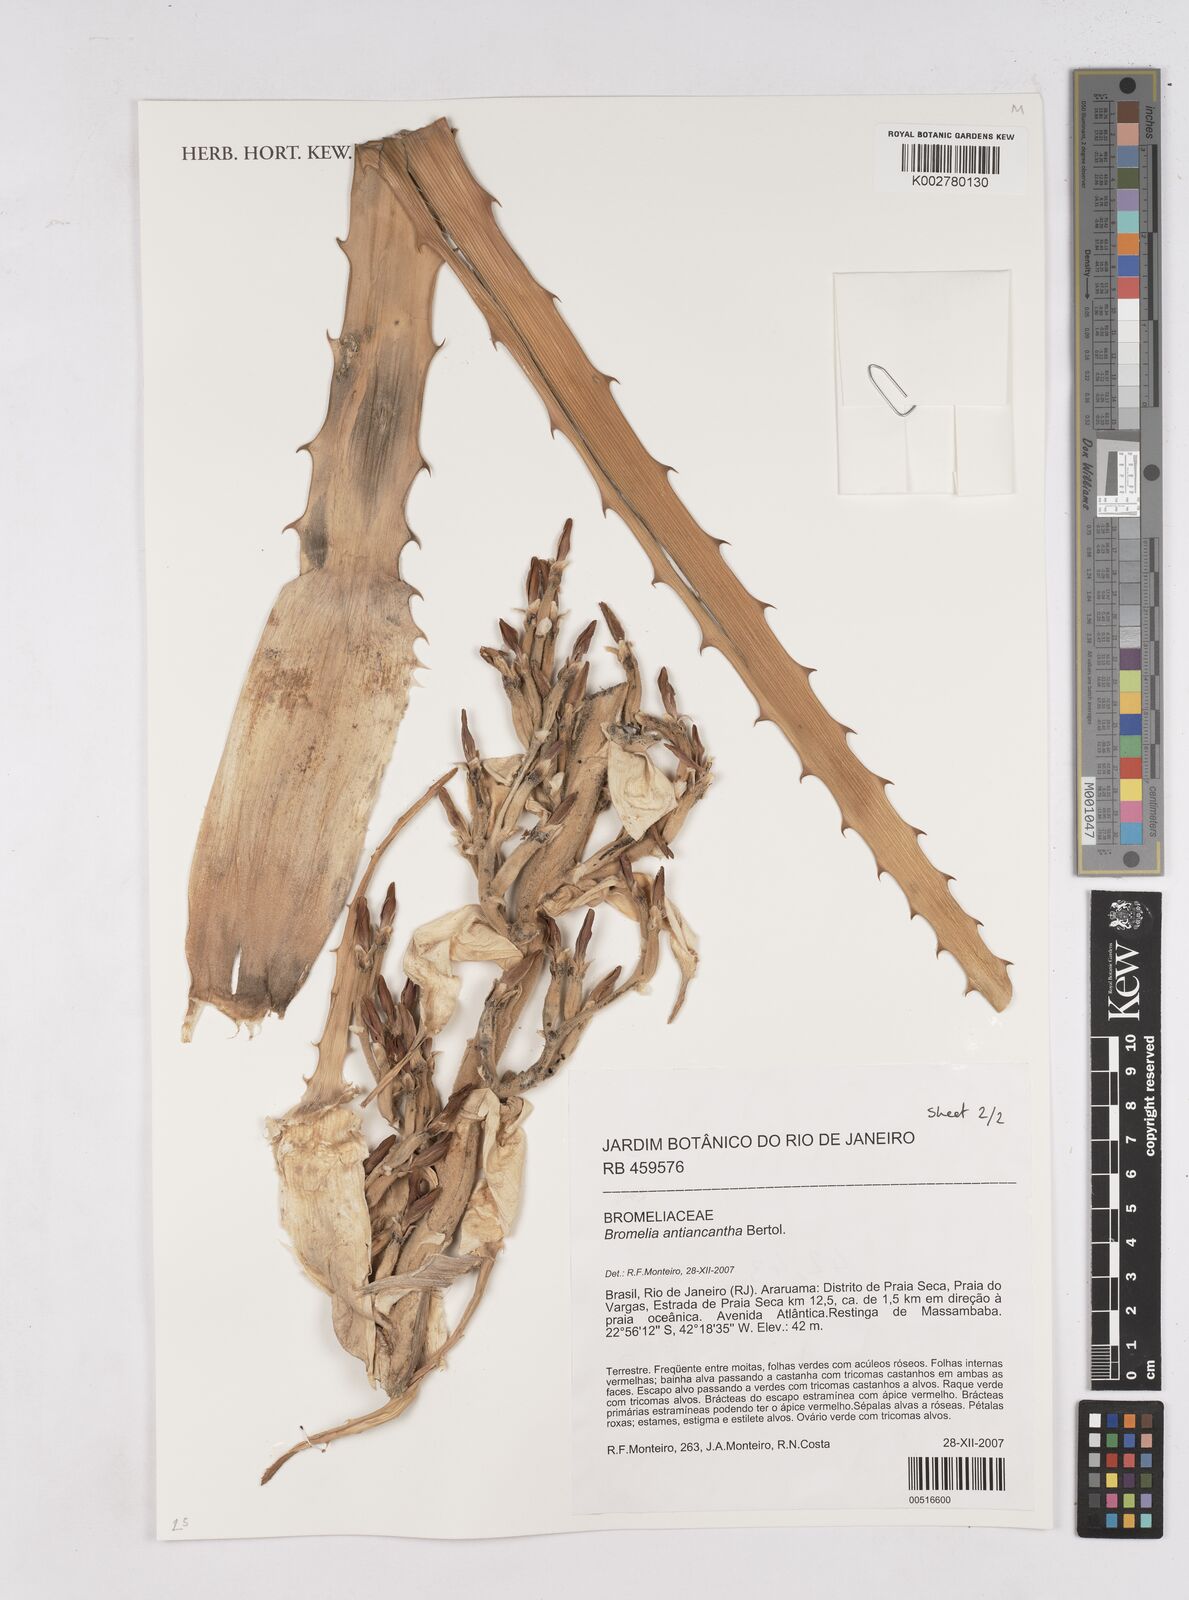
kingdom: Plantae
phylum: Tracheophyta
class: Liliopsida
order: Poales
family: Bromeliaceae
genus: Bromelia
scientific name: Bromelia antiacantha
